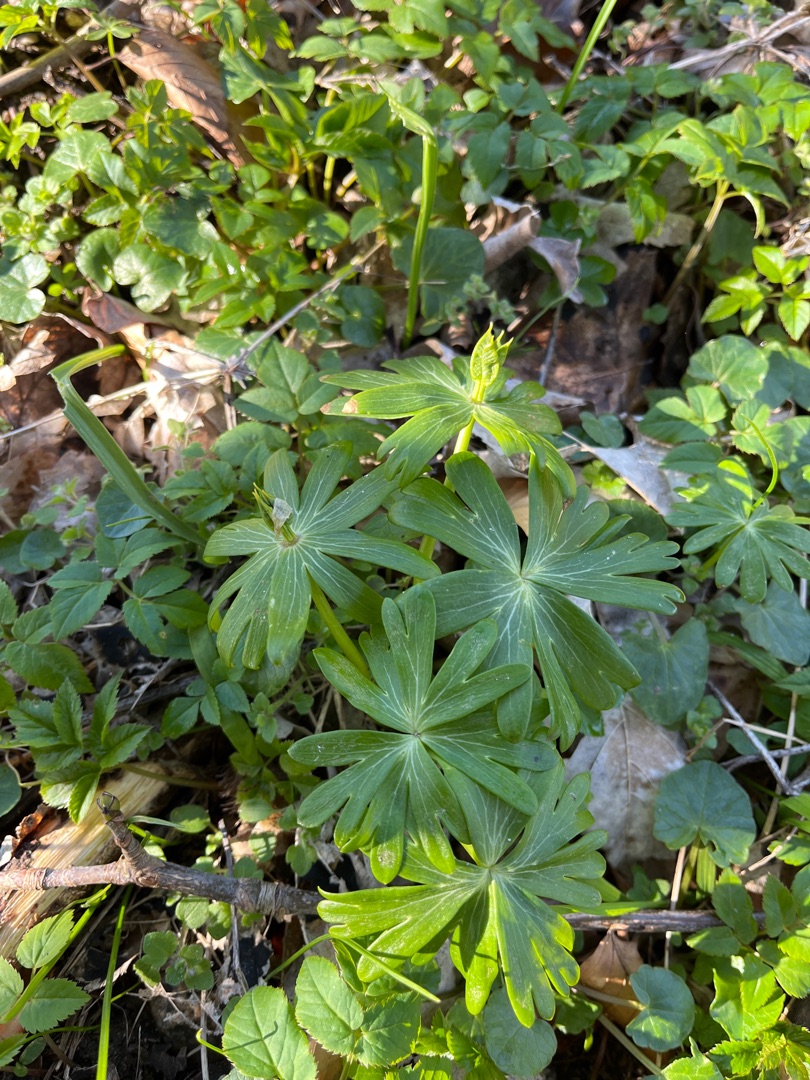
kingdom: Plantae
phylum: Tracheophyta
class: Magnoliopsida
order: Ranunculales
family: Ranunculaceae
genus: Eranthis
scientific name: Eranthis hyemalis
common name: Erantis
